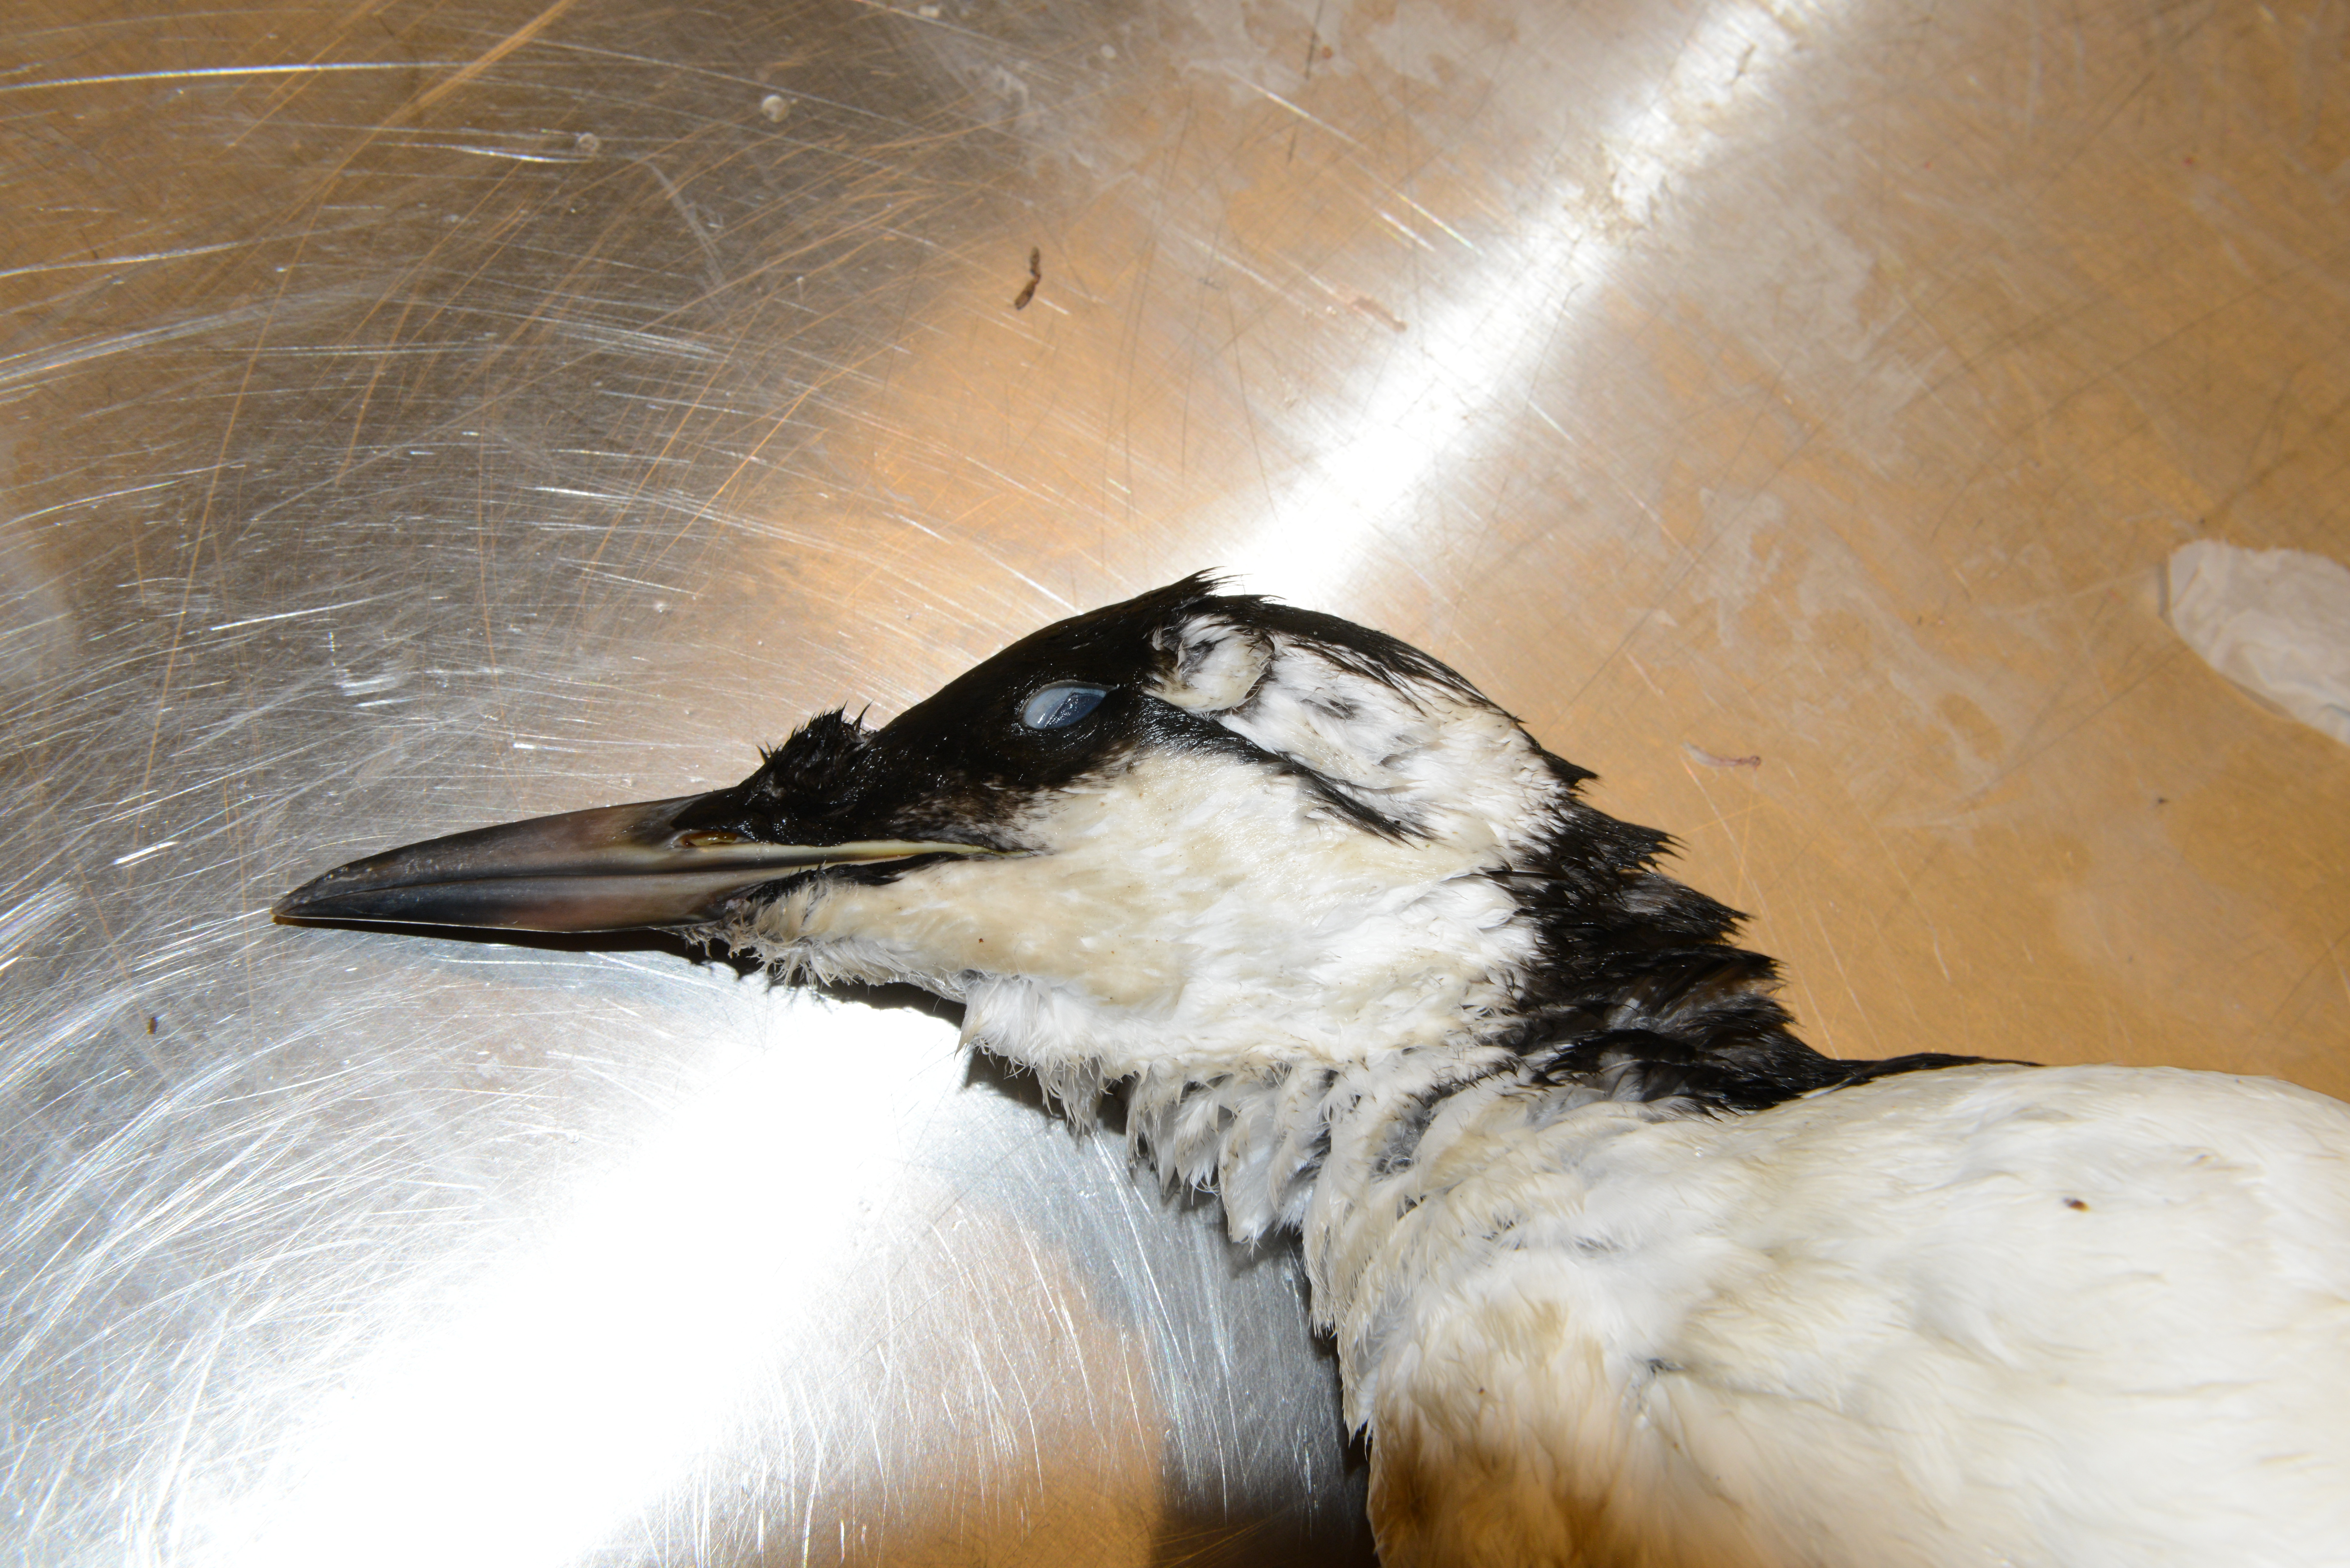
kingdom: Animalia
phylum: Chordata
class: Aves
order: Charadriiformes
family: Alcidae
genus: Uria
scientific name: Uria aalge
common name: Common murre
